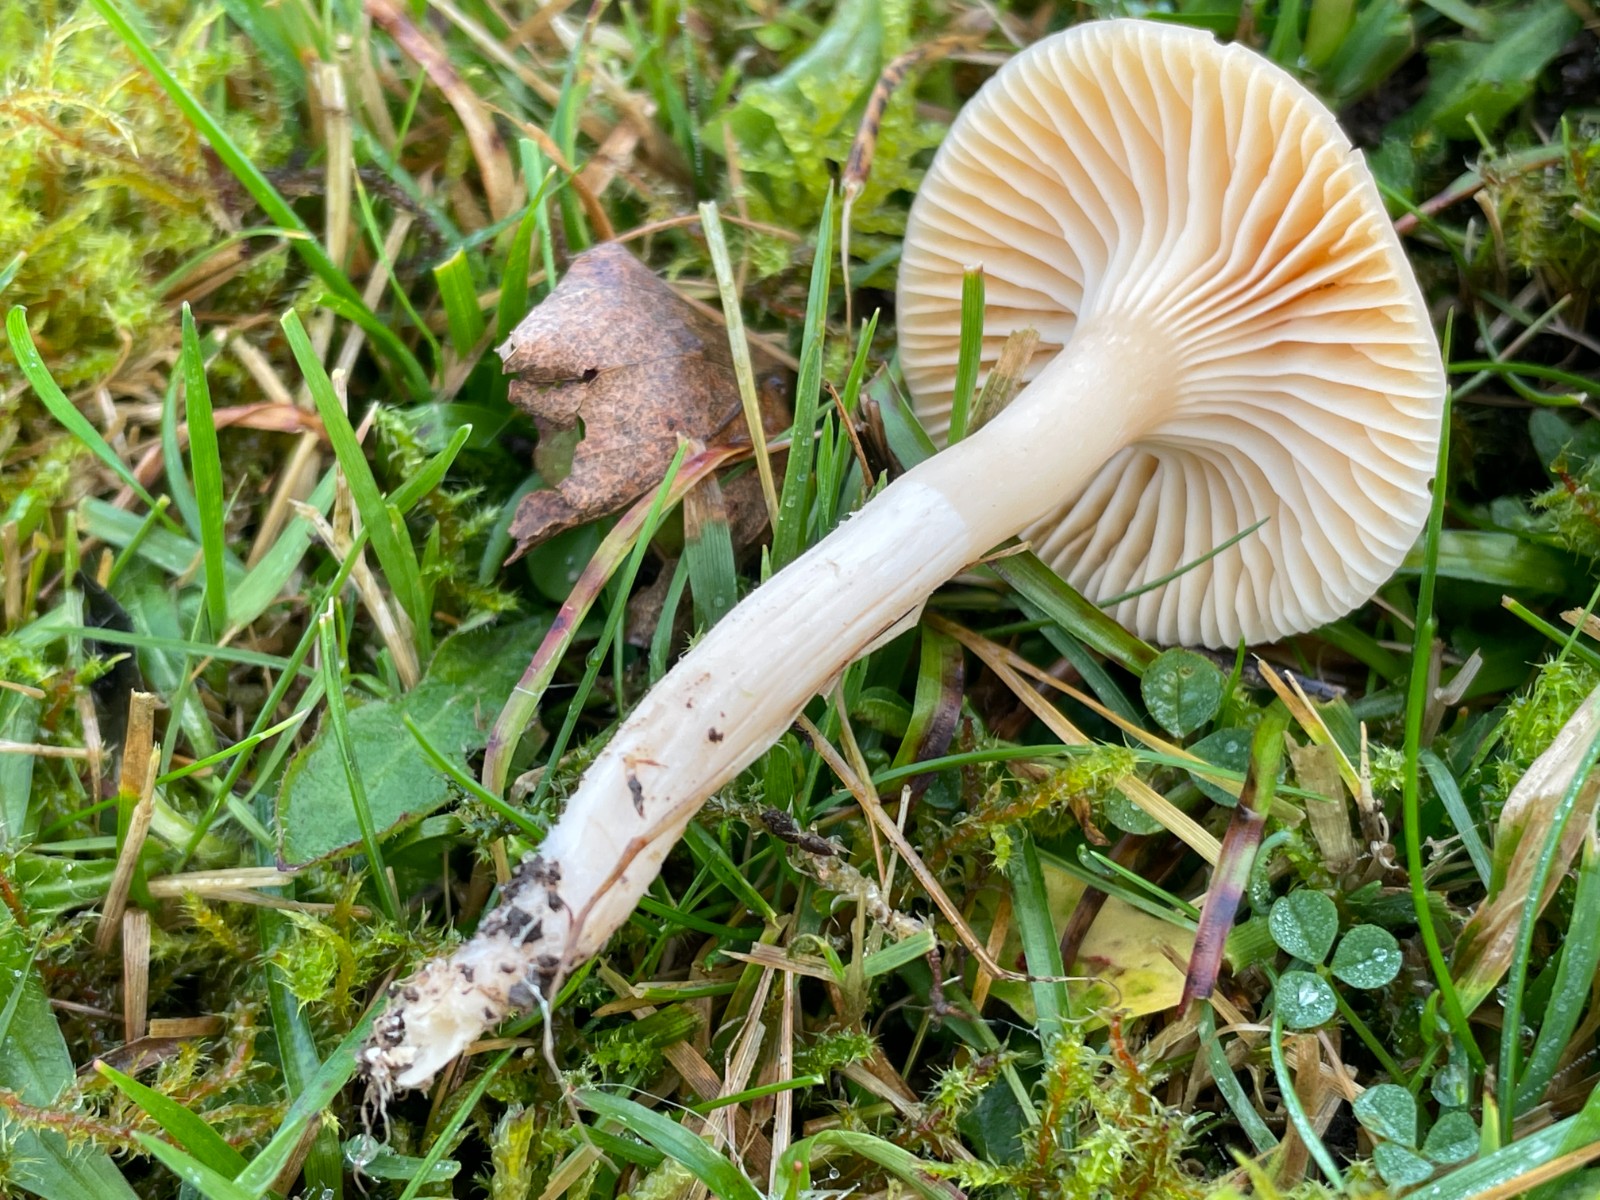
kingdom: Fungi
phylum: Basidiomycota
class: Agaricomycetes
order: Agaricales
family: Hygrophoraceae
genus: Cuphophyllus
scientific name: Cuphophyllus pratensis
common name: eng-vokshat
